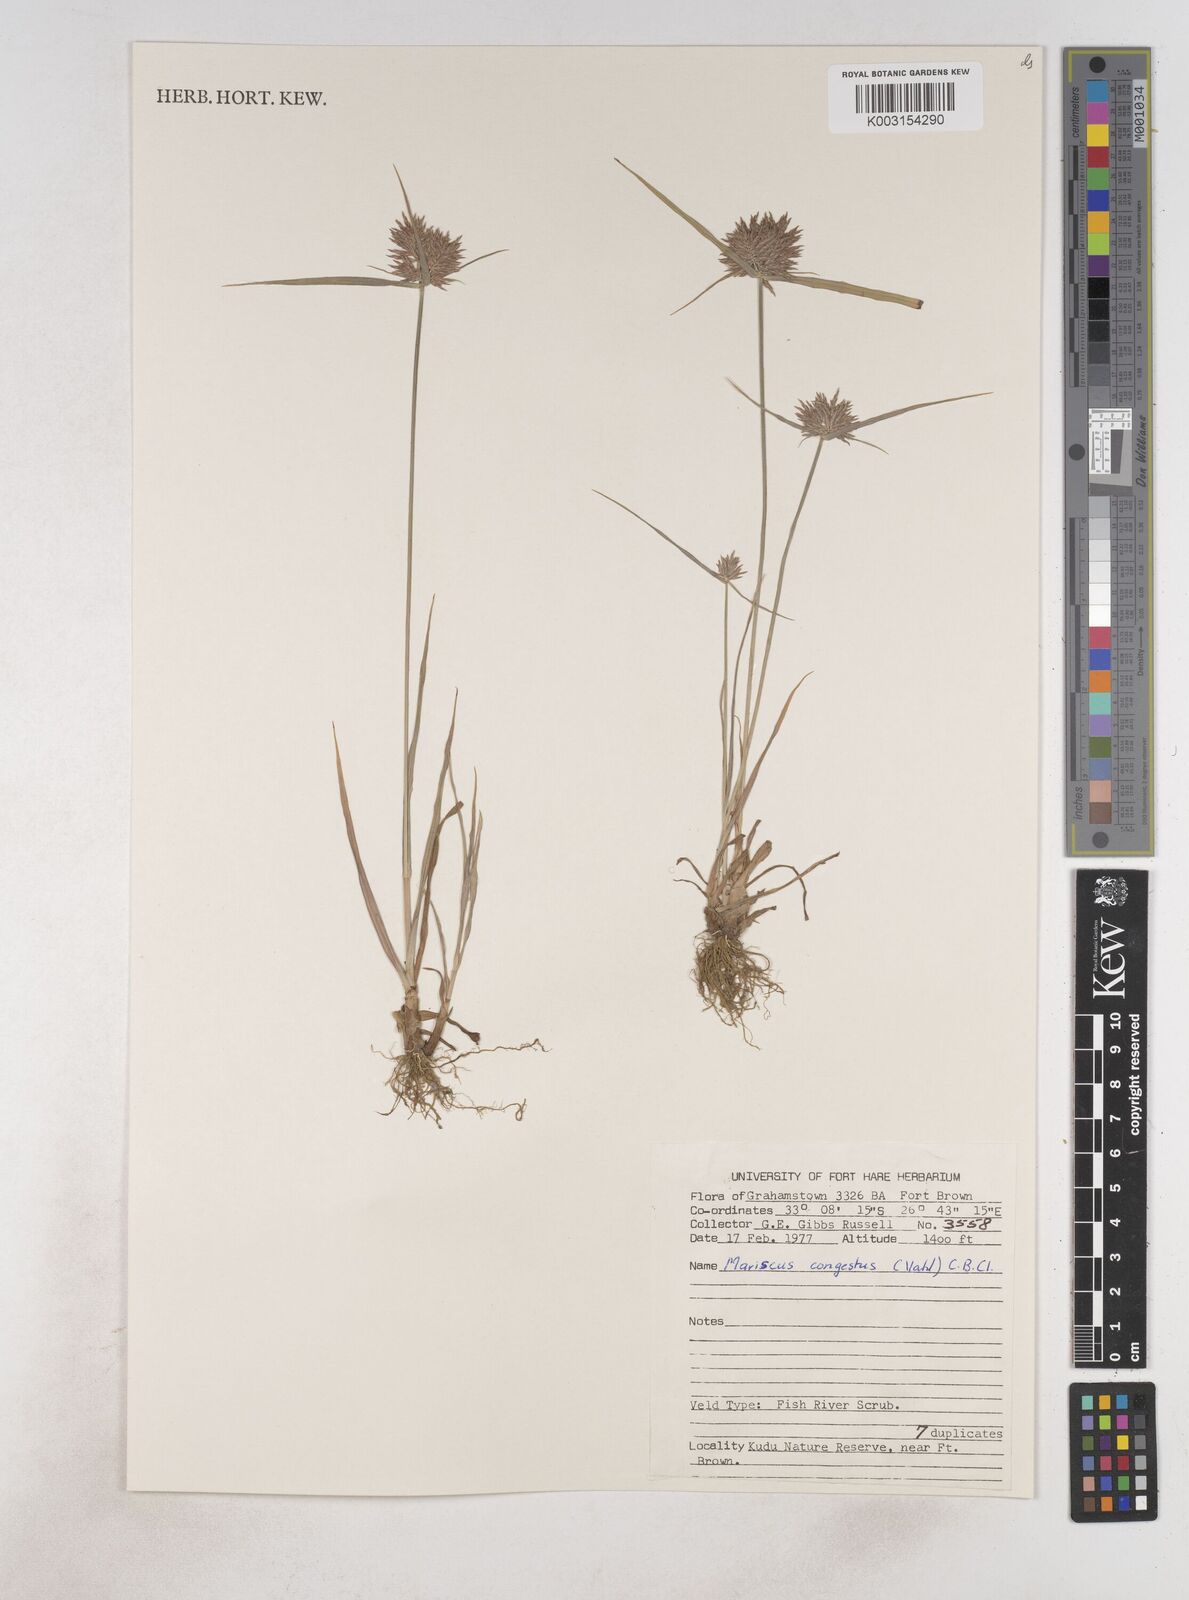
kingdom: Plantae
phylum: Tracheophyta
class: Liliopsida
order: Poales
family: Cyperaceae
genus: Cyperus
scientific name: Cyperus congestus
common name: Dense flat sedge
